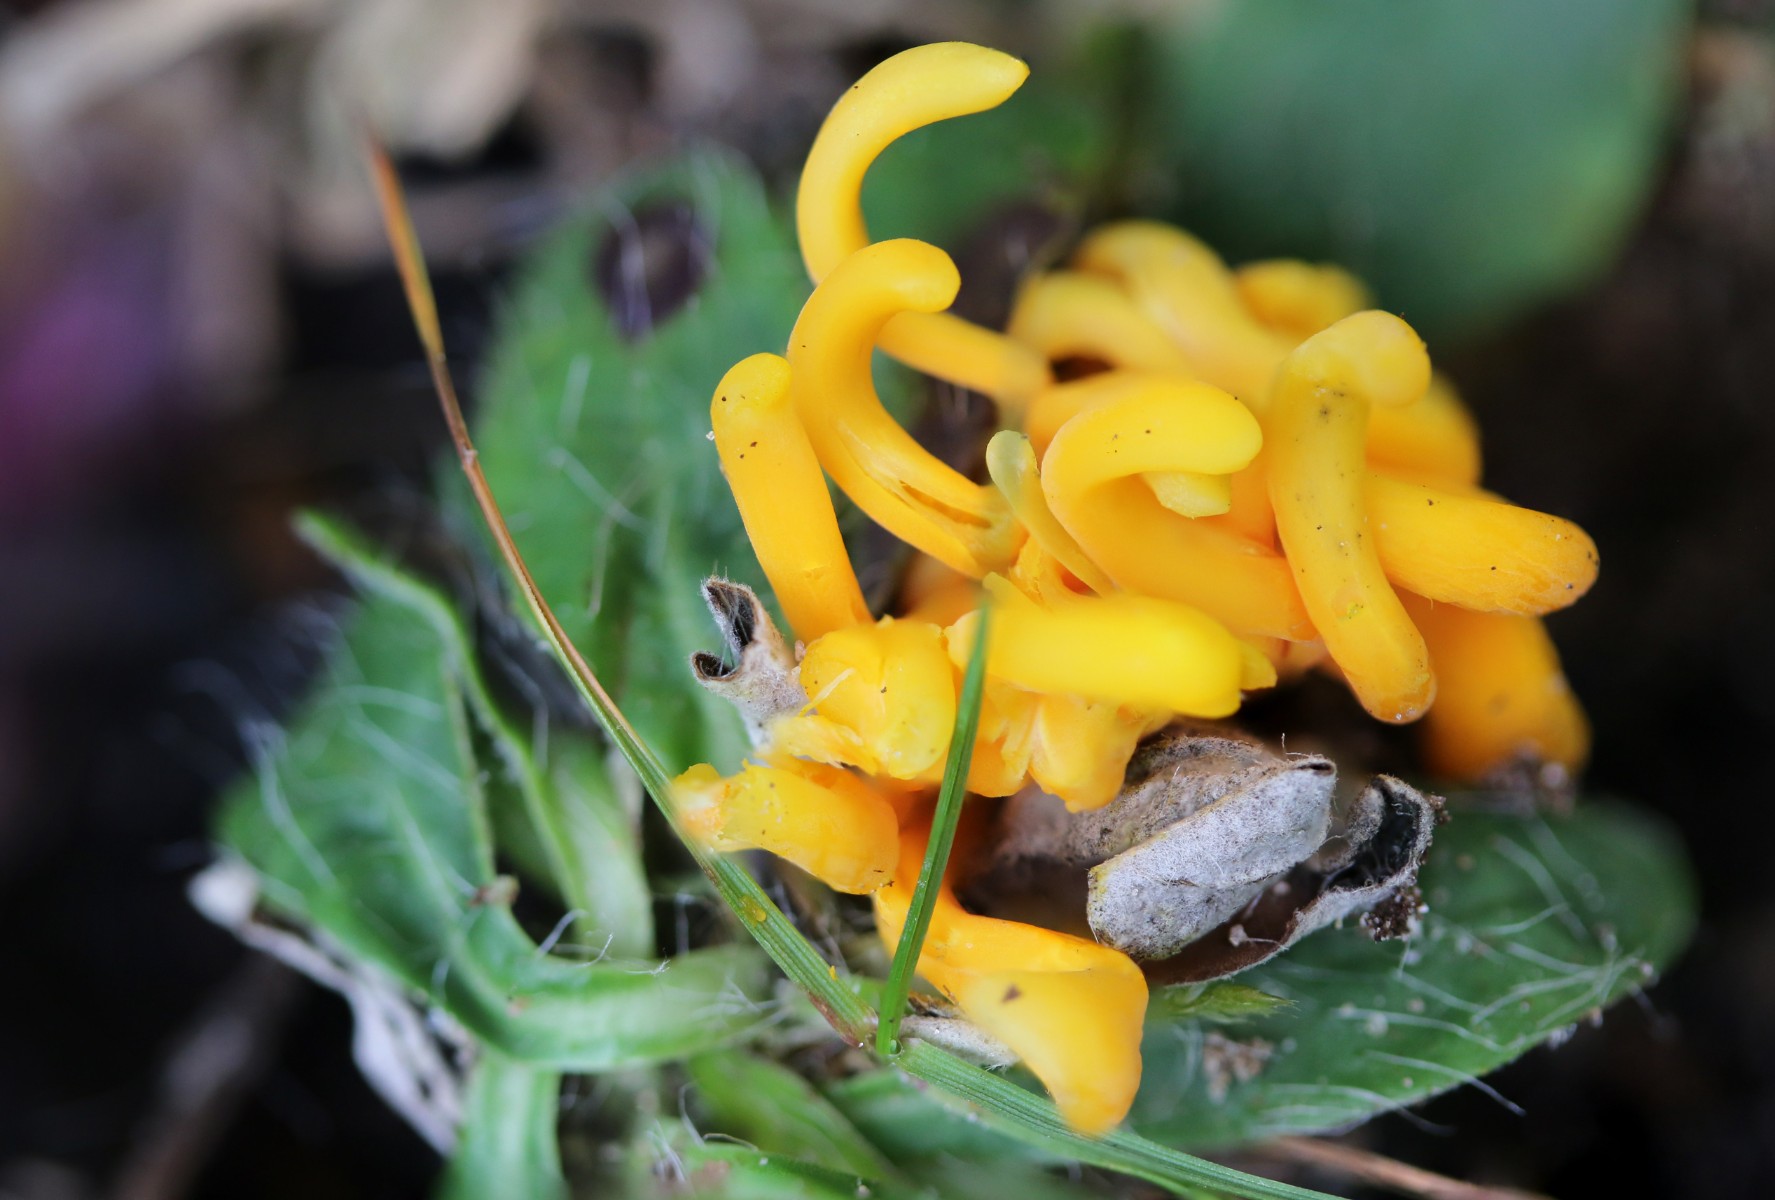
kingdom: Fungi
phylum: Basidiomycota
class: Agaricomycetes
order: Agaricales
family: Clavariaceae
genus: Clavulinopsis
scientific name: Clavulinopsis luteoalba
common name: abrikos-køllesvamp
